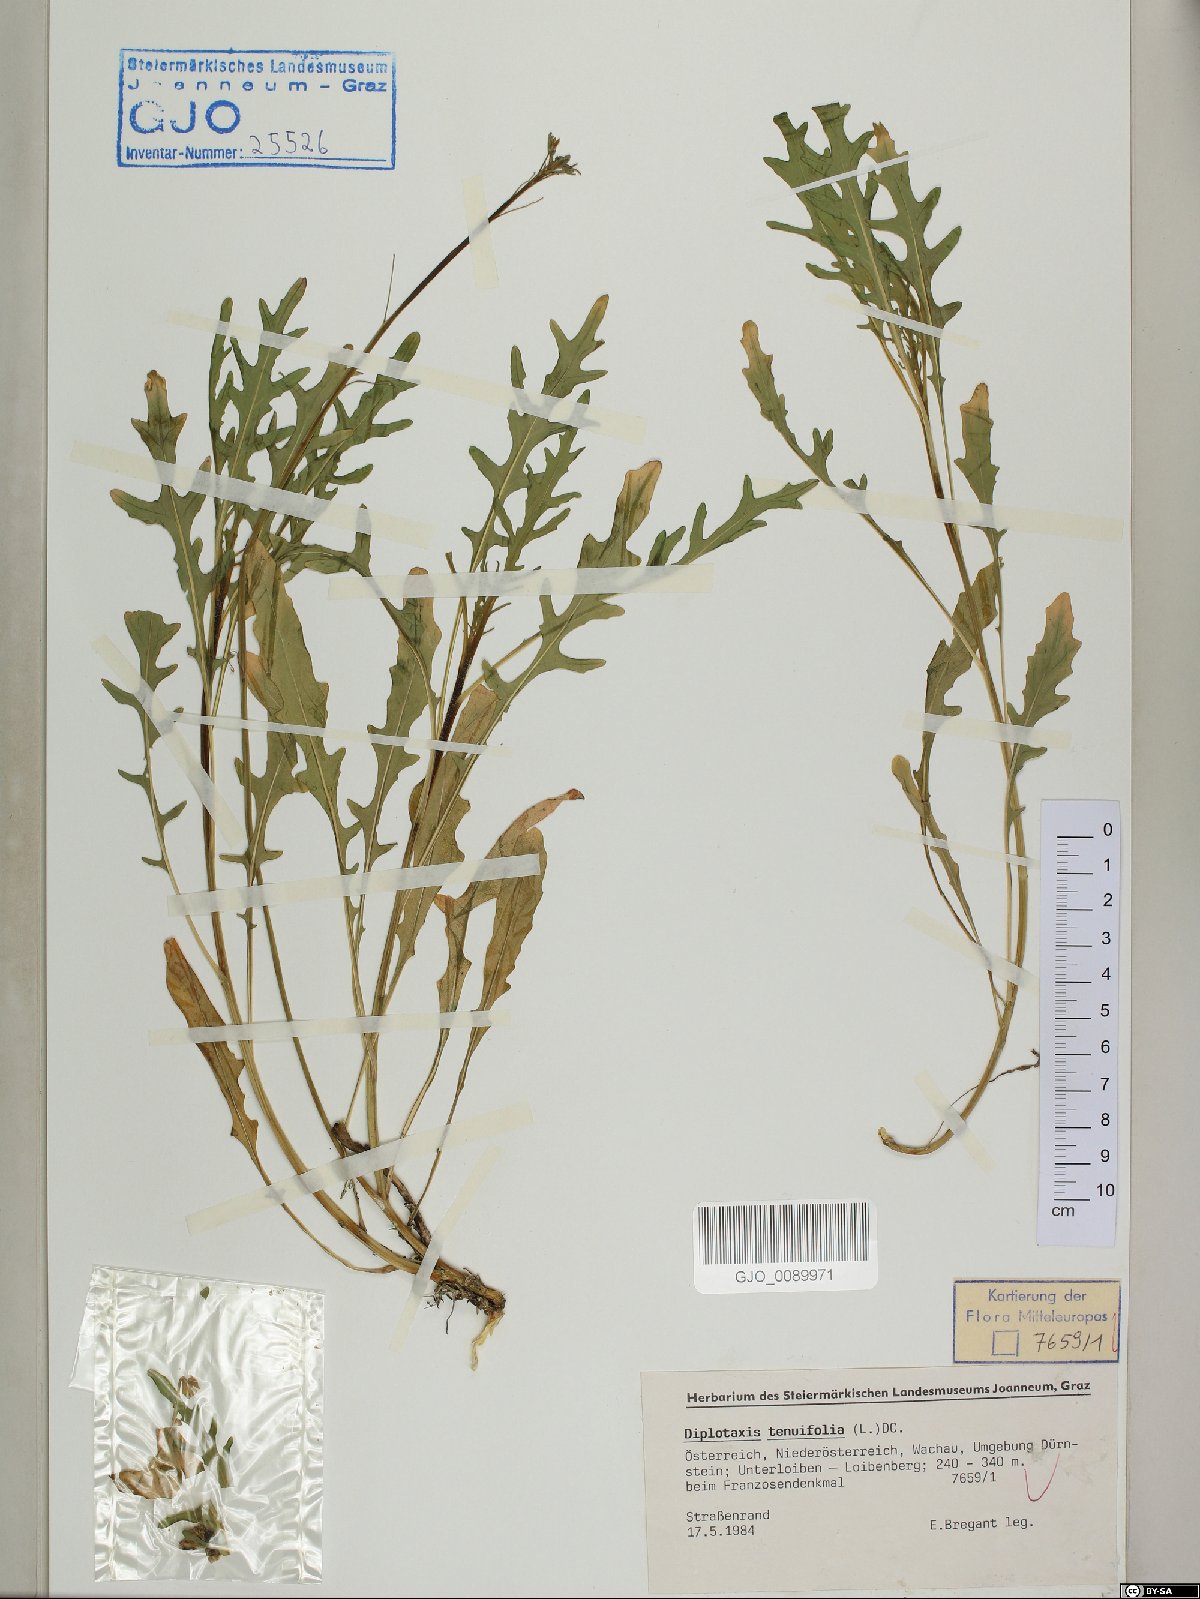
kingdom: Plantae
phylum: Tracheophyta
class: Magnoliopsida
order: Brassicales
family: Brassicaceae
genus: Diplotaxis
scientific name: Diplotaxis tenuifolia
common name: Perennial wall-rocket
